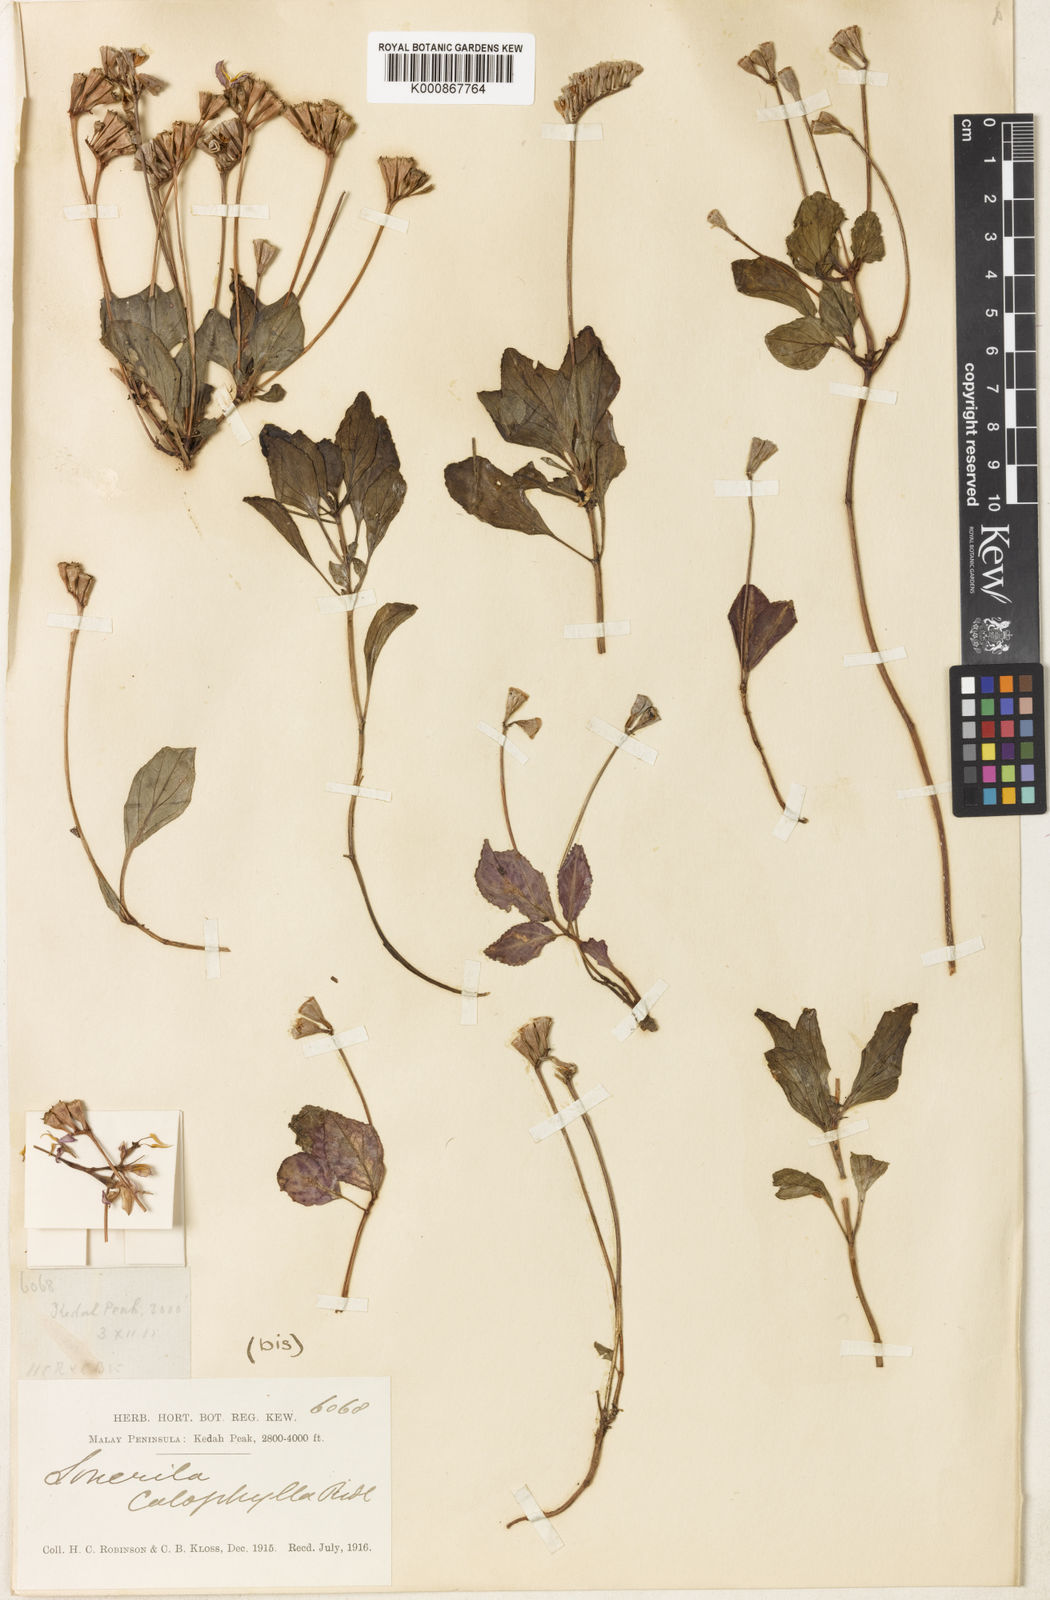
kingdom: Plantae
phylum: Tracheophyta
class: Magnoliopsida
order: Myrtales
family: Melastomataceae
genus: Sonerila
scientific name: Sonerila calophylla
